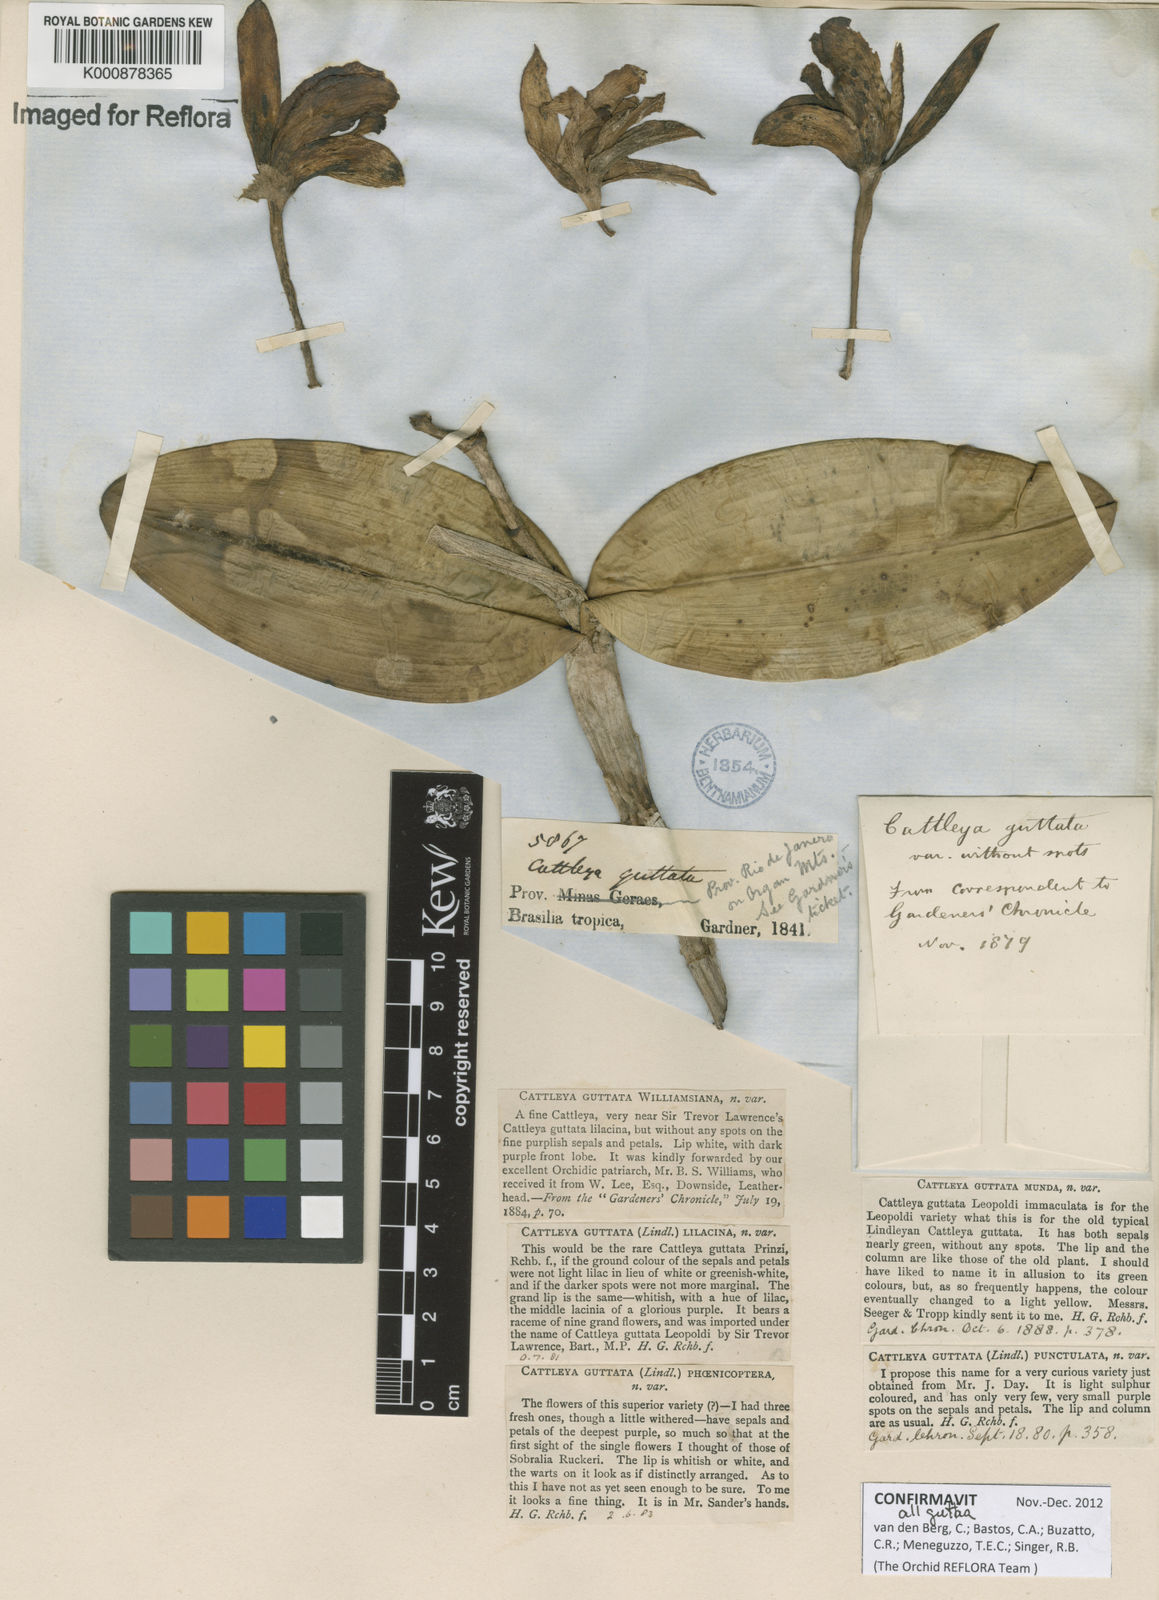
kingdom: Plantae
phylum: Tracheophyta
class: Liliopsida
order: Asparagales
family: Orchidaceae
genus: Cattleya
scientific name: Cattleya guttata
